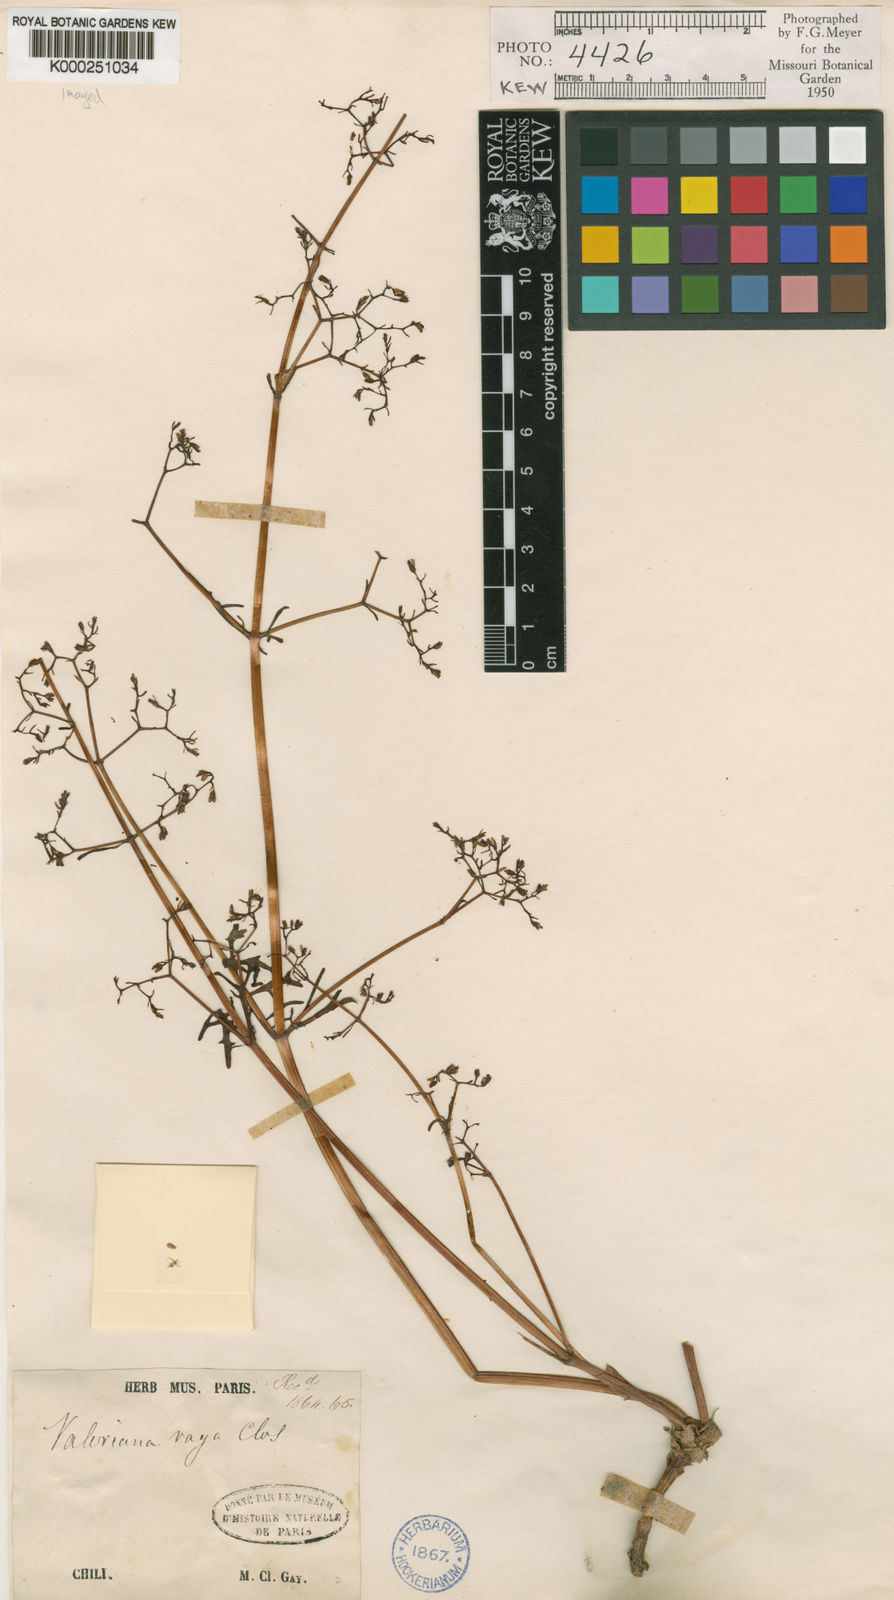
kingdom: Plantae
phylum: Tracheophyta
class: Magnoliopsida
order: Dipsacales
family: Caprifoliaceae
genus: Valeriana
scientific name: Valeriana vaga
